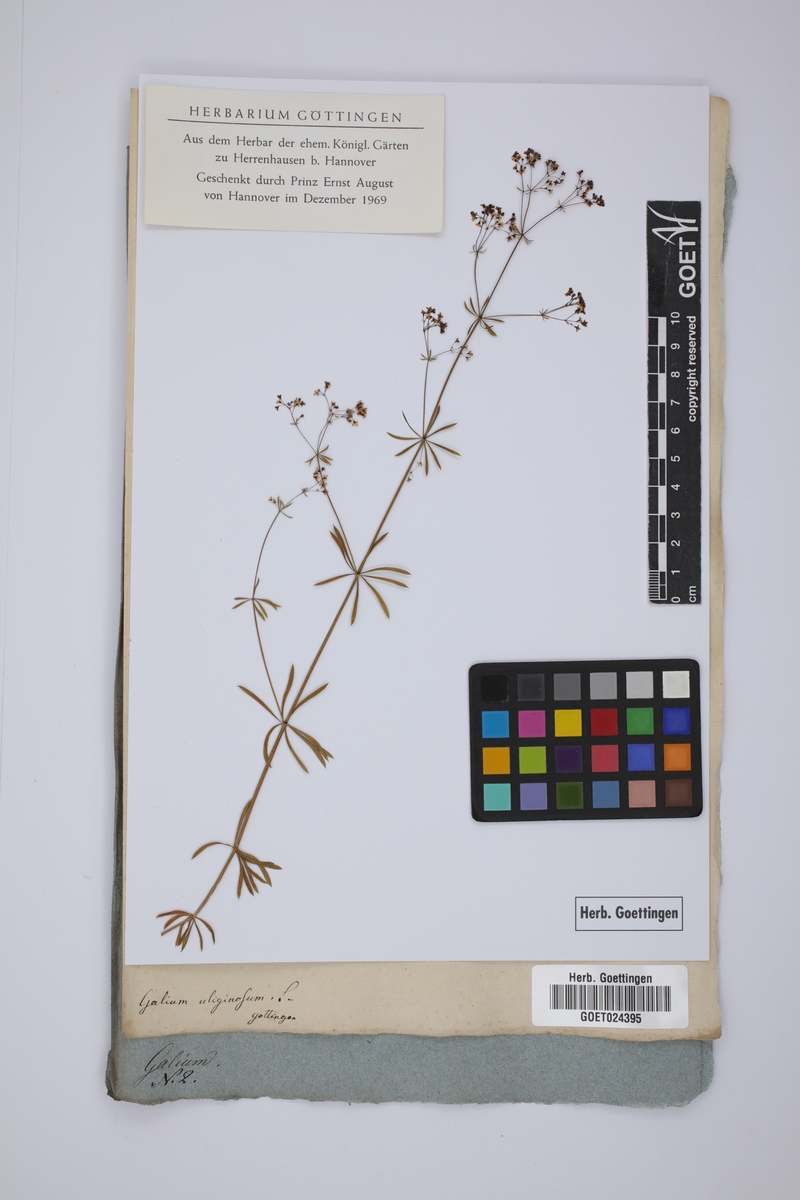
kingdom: Plantae
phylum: Tracheophyta
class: Magnoliopsida
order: Gentianales
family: Rubiaceae
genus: Galium
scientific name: Galium uliginosum
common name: Fen bedstraw
